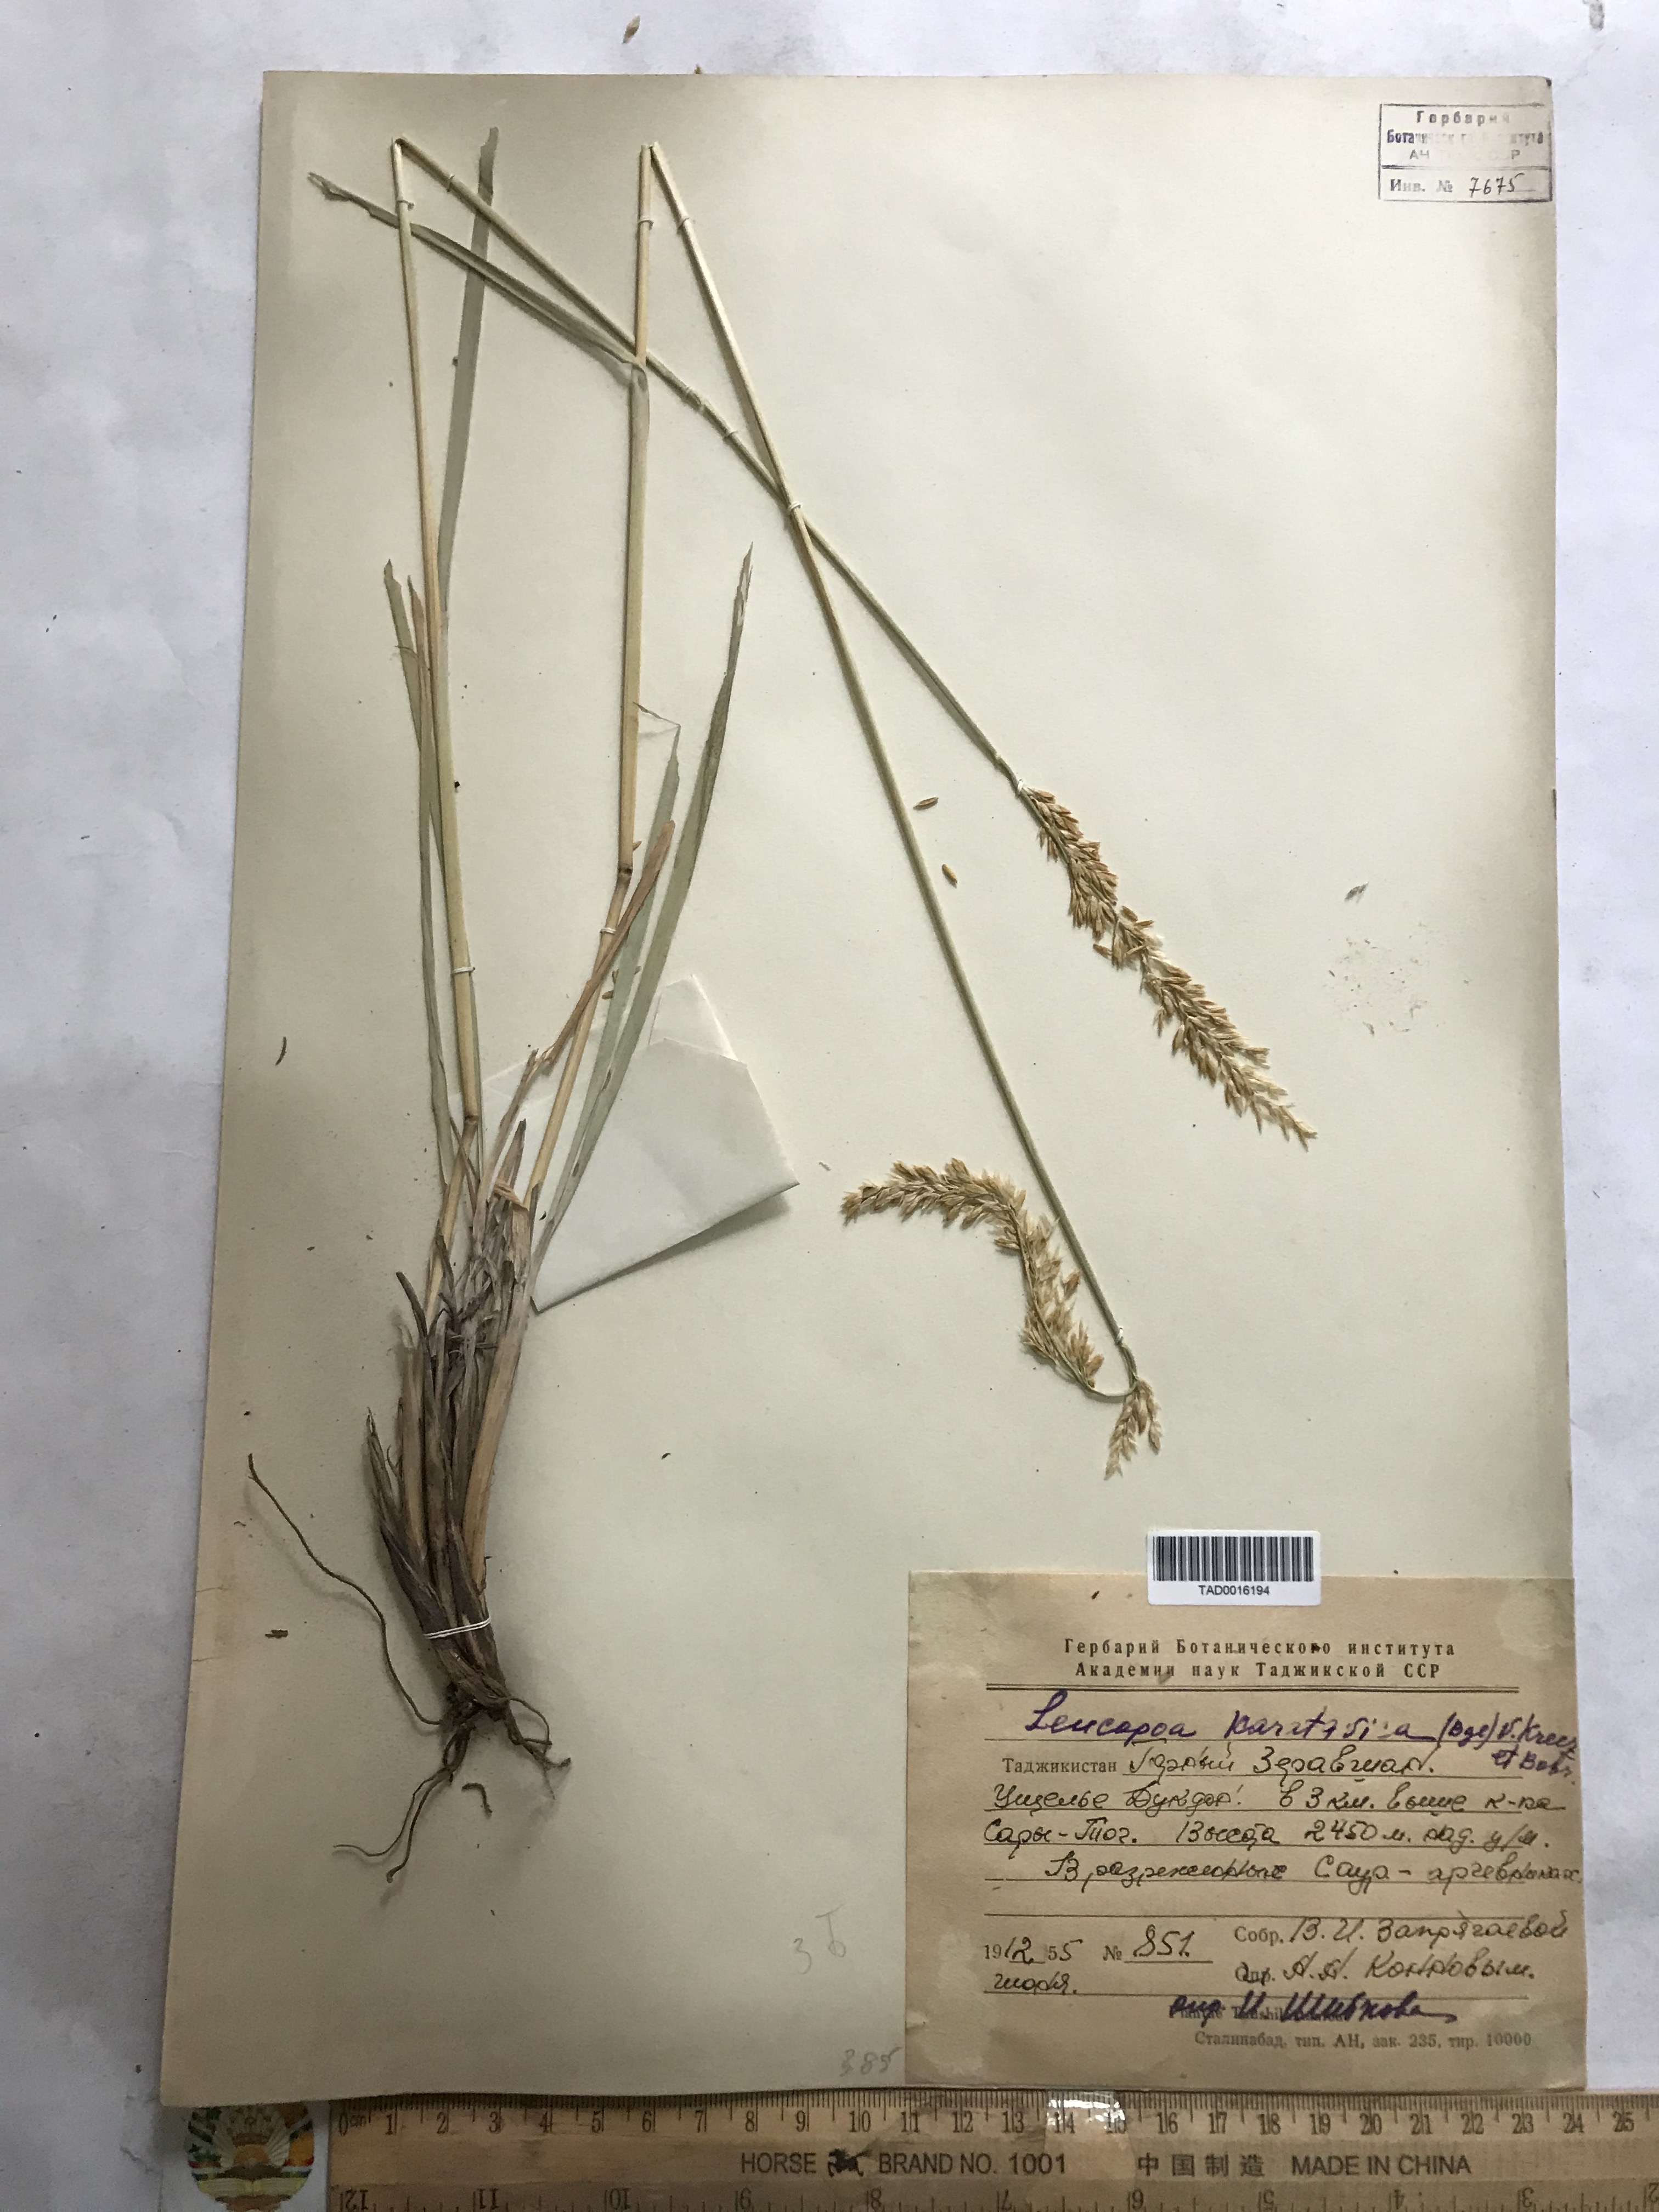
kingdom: Plantae
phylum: Tracheophyta
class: Liliopsida
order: Poales
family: Poaceae
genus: Festuca
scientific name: Festuca karatavica
